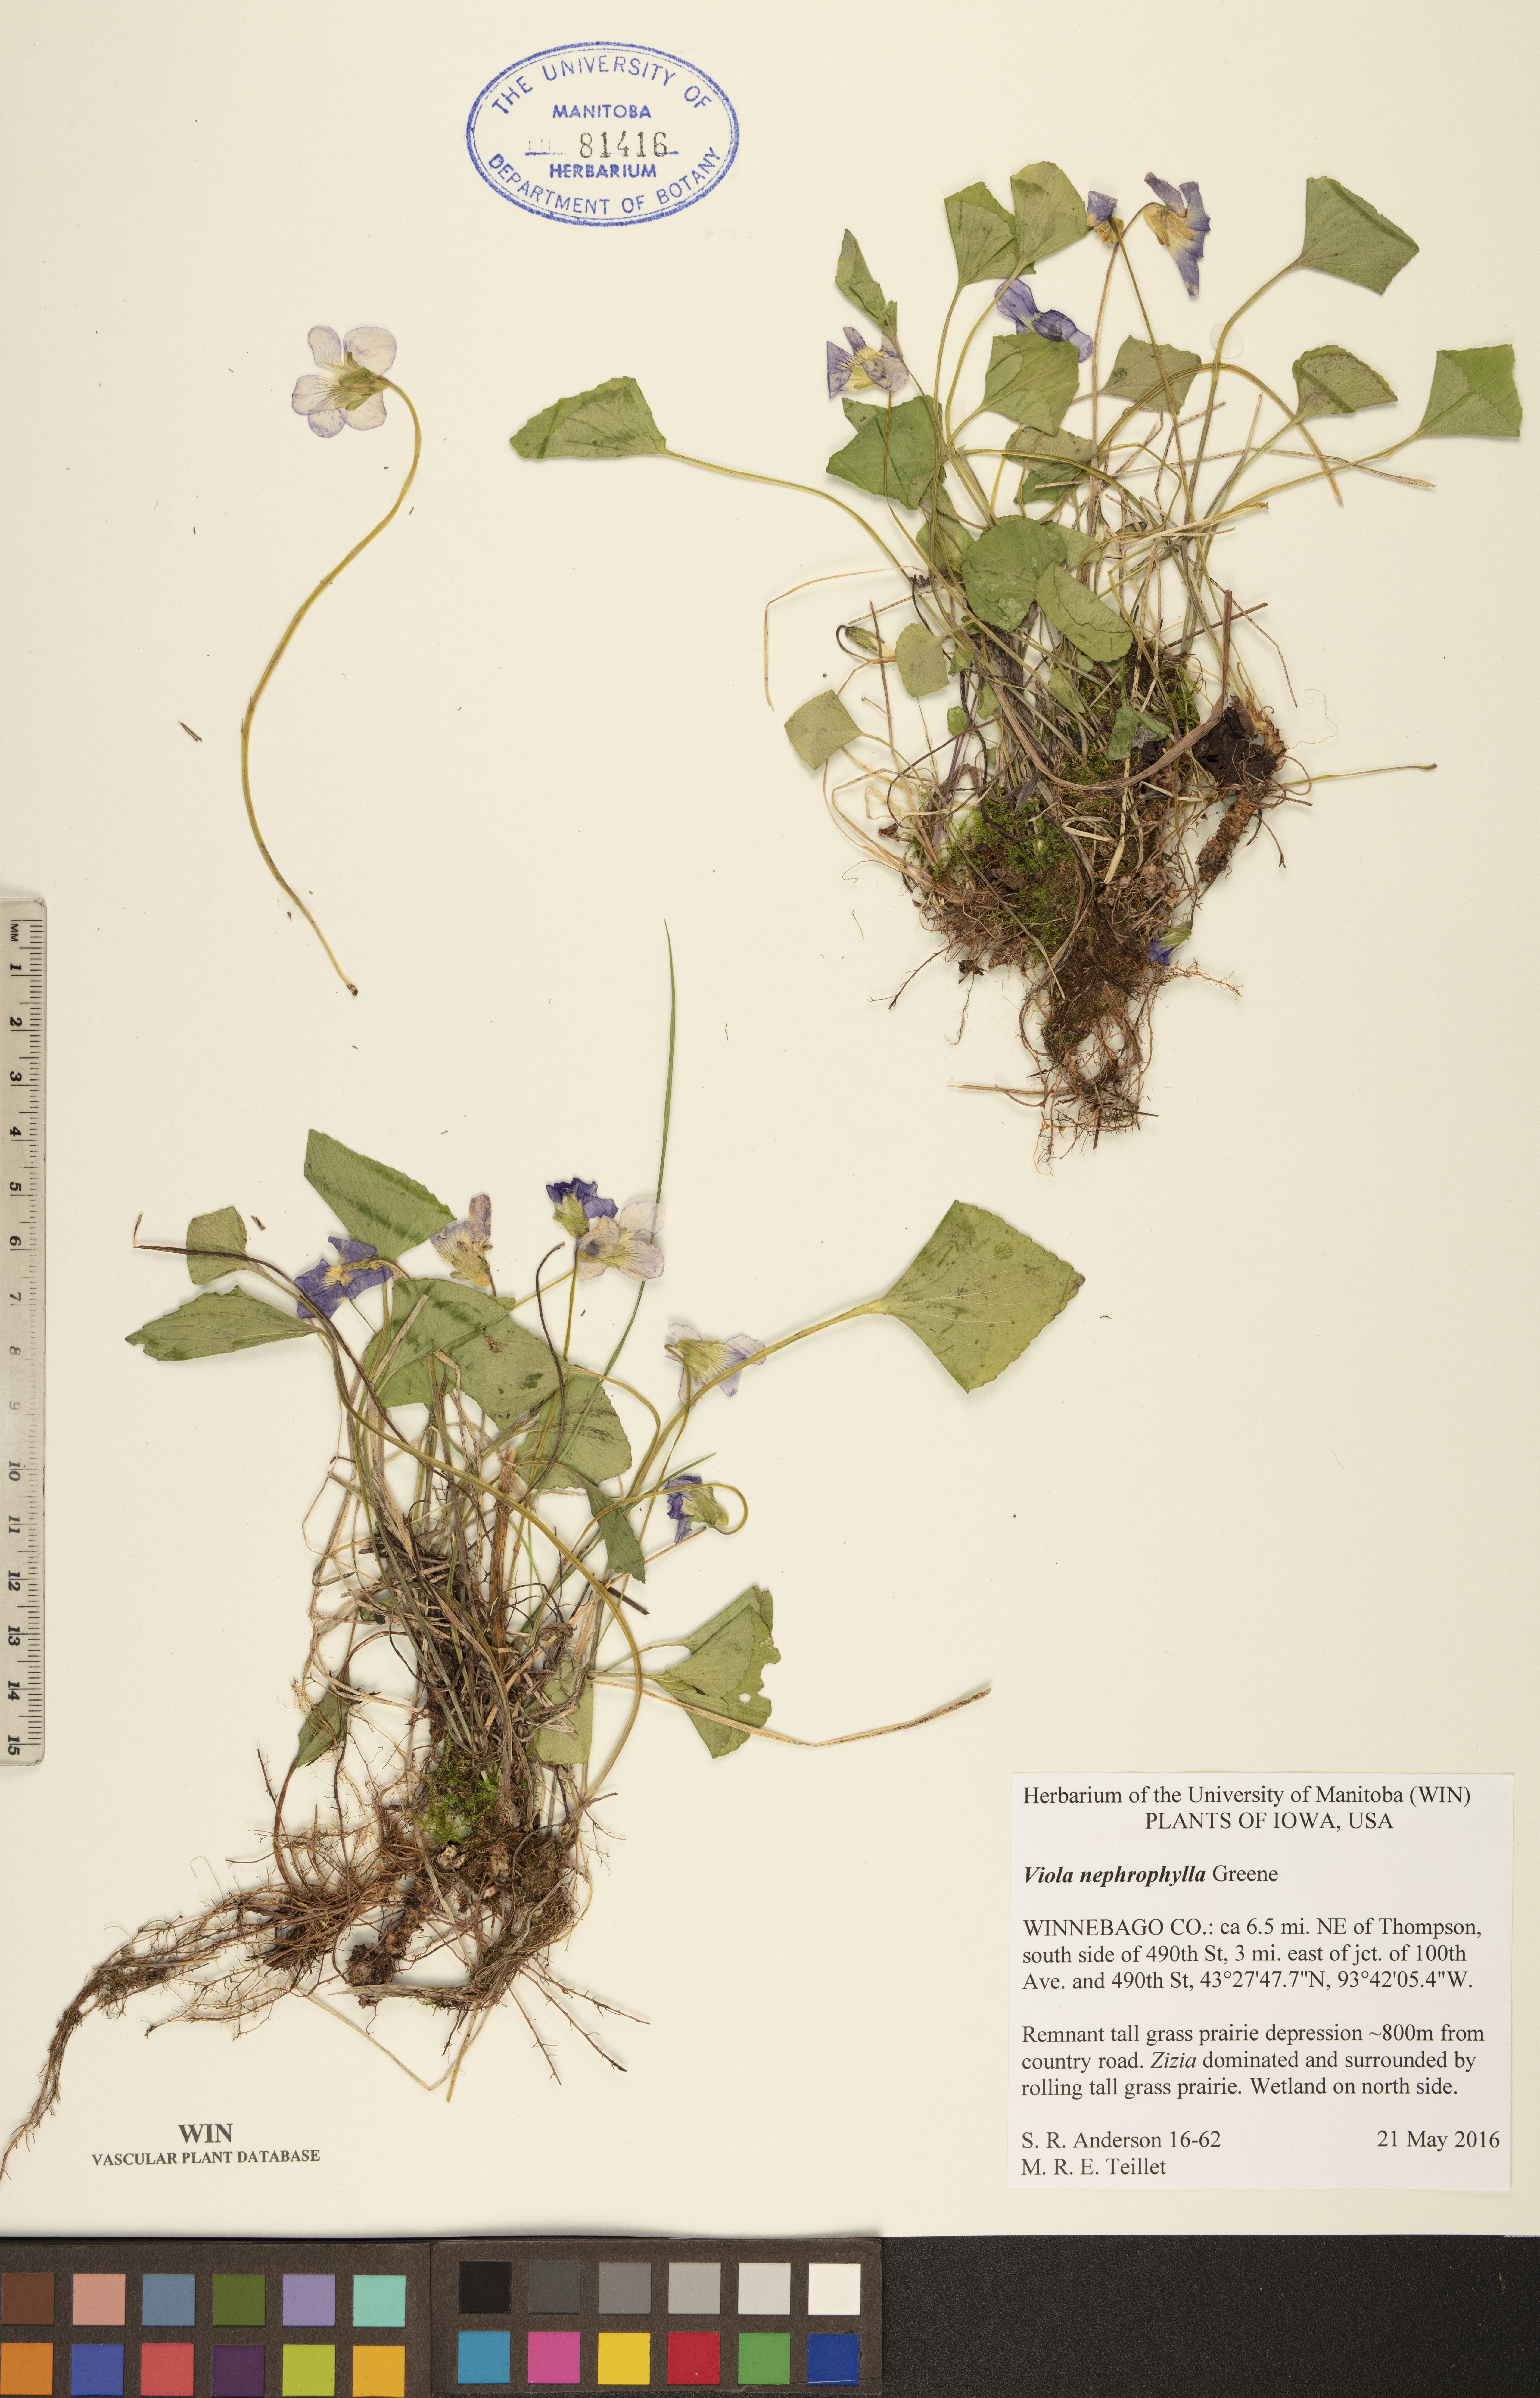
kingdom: Plantae
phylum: Tracheophyta
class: Magnoliopsida
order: Malpighiales
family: Violaceae
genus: Viola
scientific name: Viola nephrophylla
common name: Blue meadow violet
